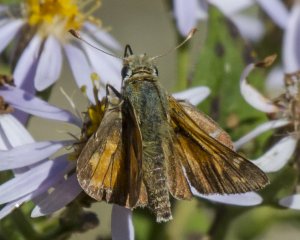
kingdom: Animalia
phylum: Arthropoda
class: Insecta
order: Lepidoptera
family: Hesperiidae
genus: Hesperia
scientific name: Hesperia comma
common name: Common Branded Skipper
